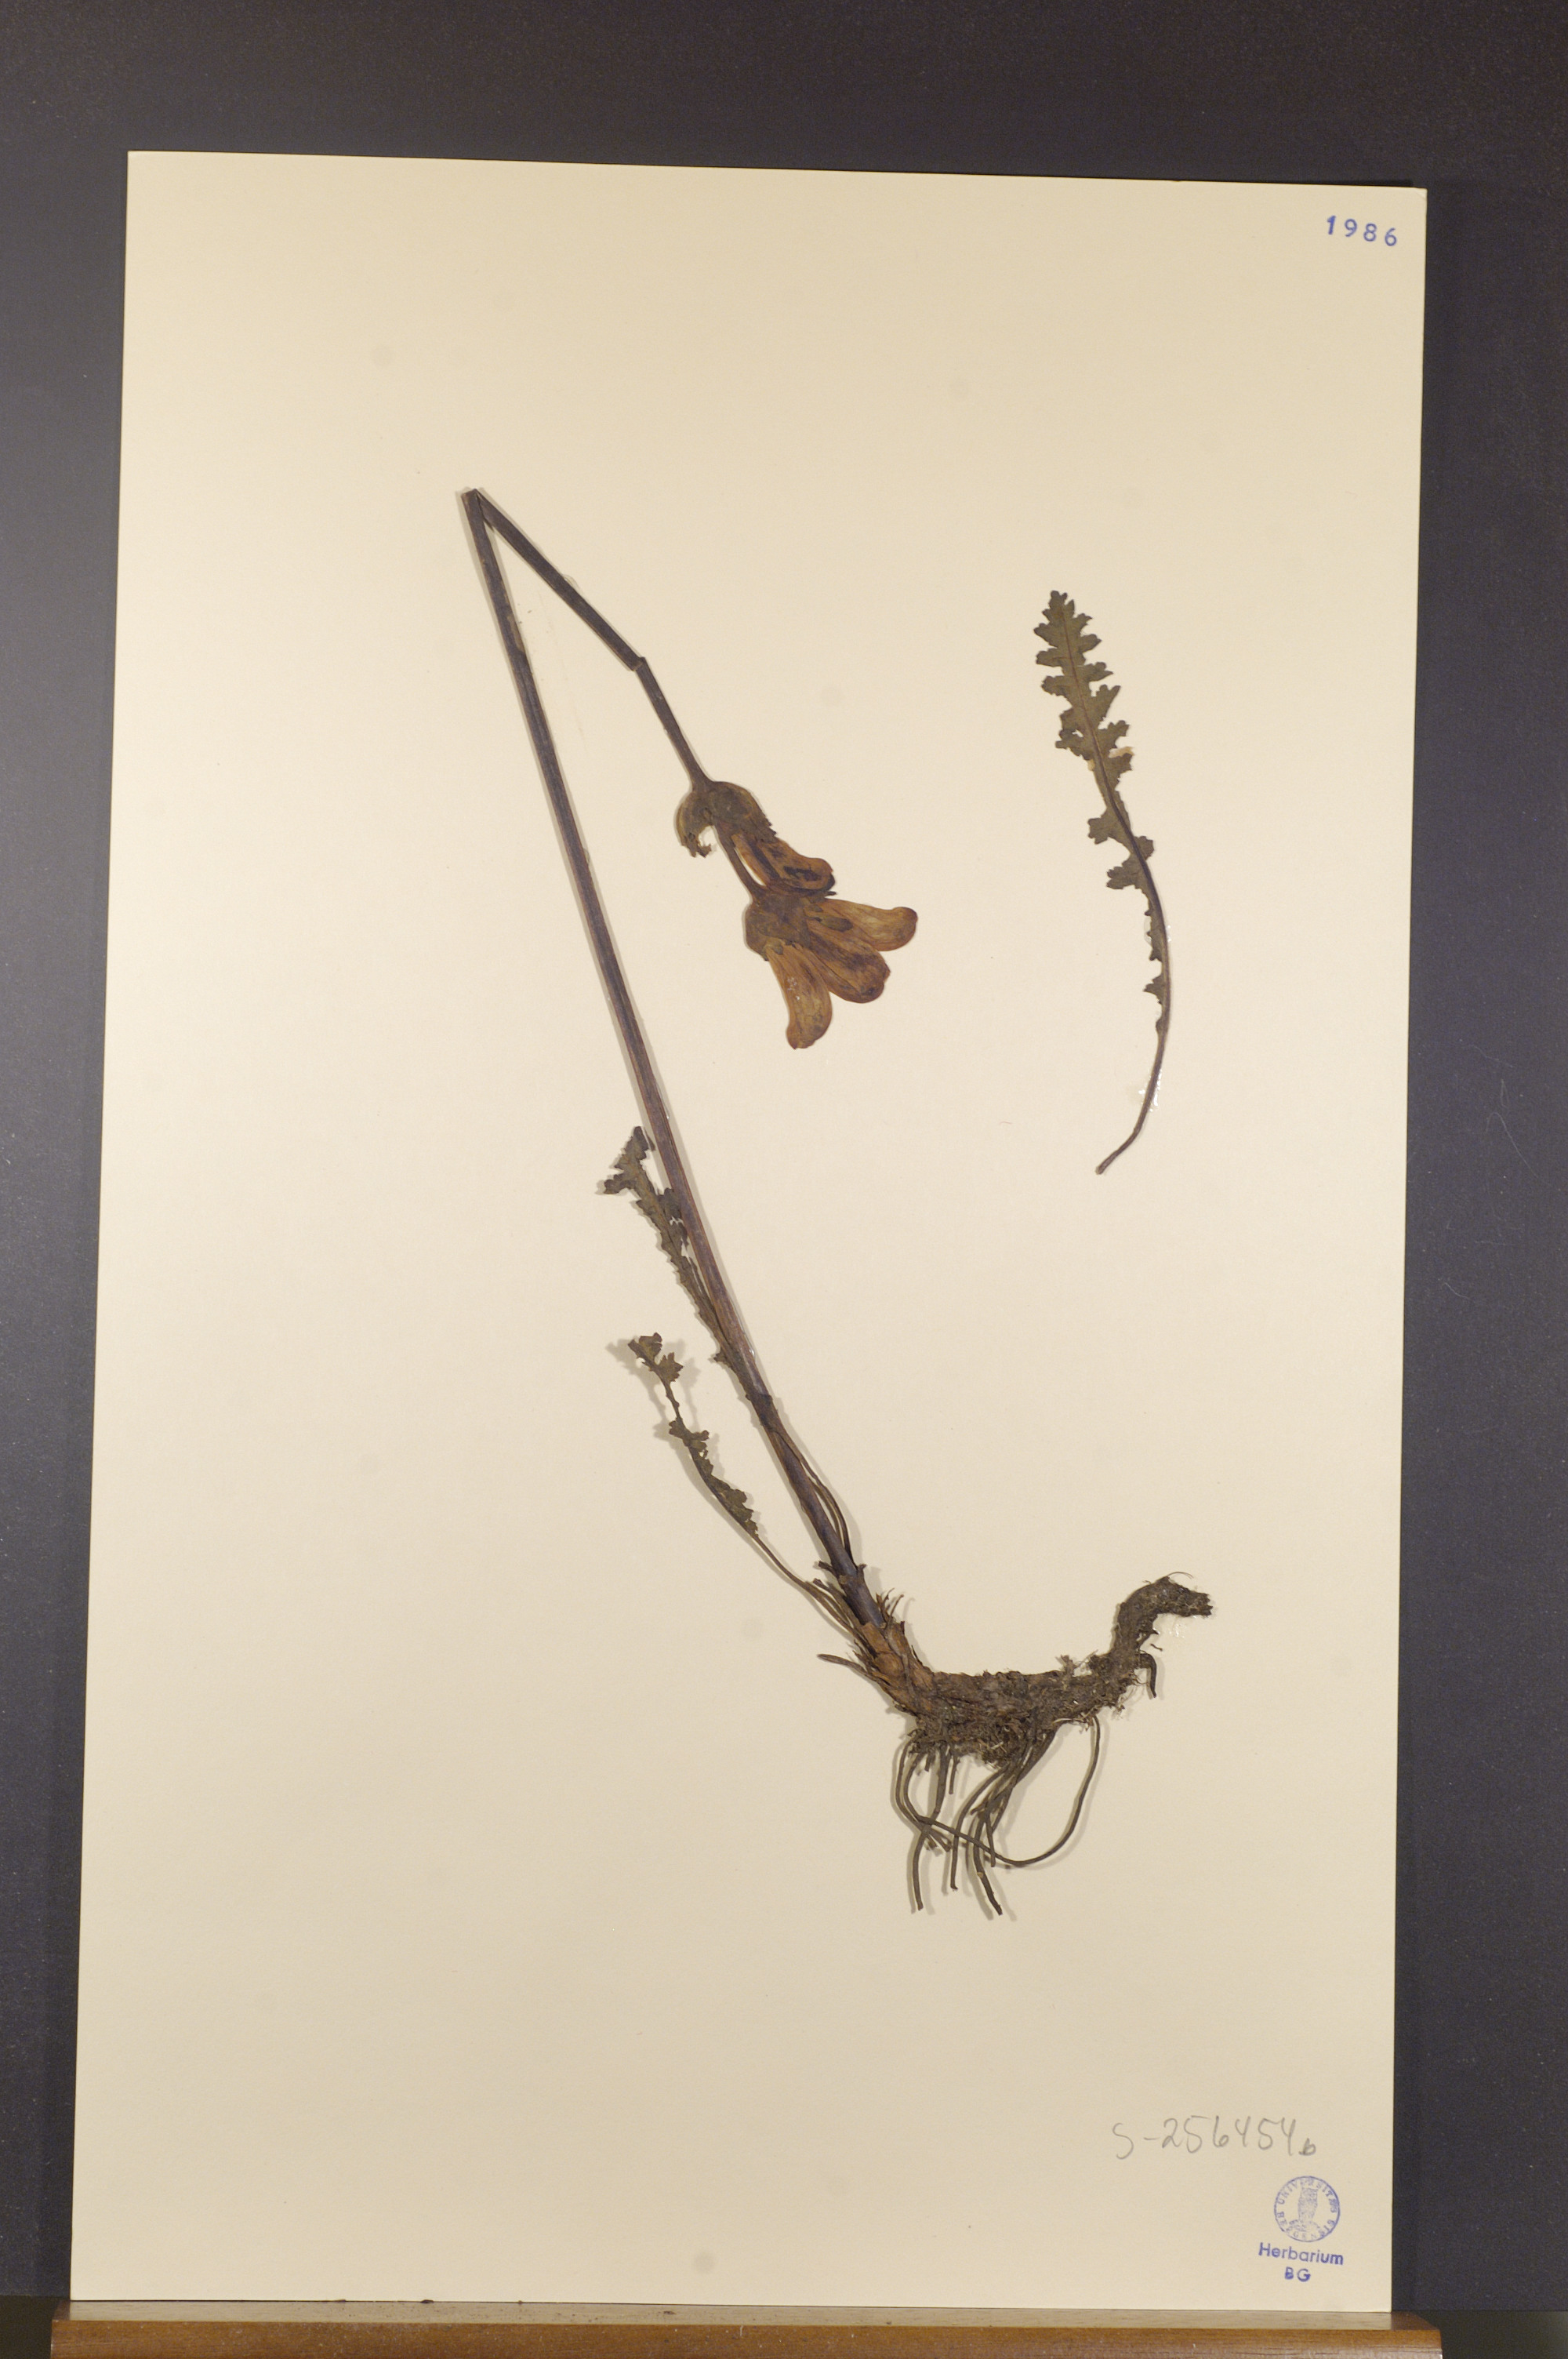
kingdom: Plantae
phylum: Tracheophyta
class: Magnoliopsida
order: Lamiales
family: Orobanchaceae
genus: Rhinanthus
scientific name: Rhinanthus groenlandicus
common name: Little yellow rattle
